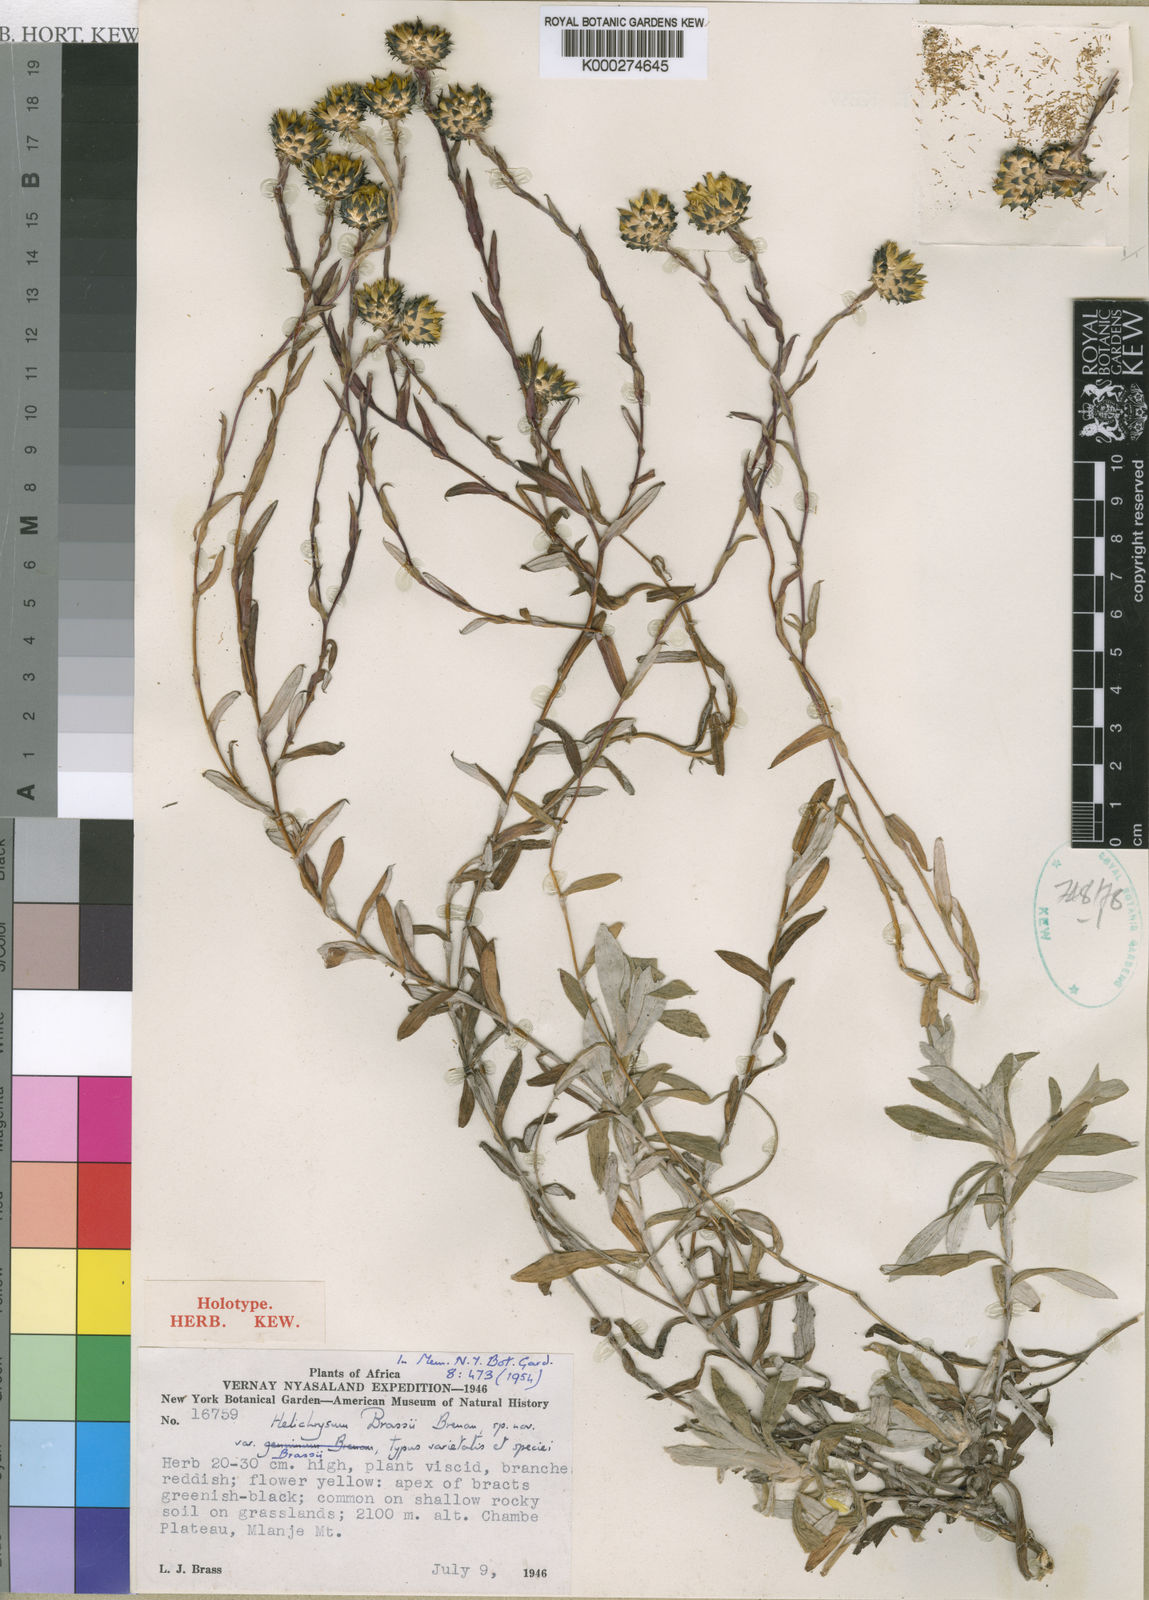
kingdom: Plantae
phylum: Tracheophyta
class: Magnoliopsida
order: Asterales
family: Asteraceae
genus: Helichrysum
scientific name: Helichrysum brassii
